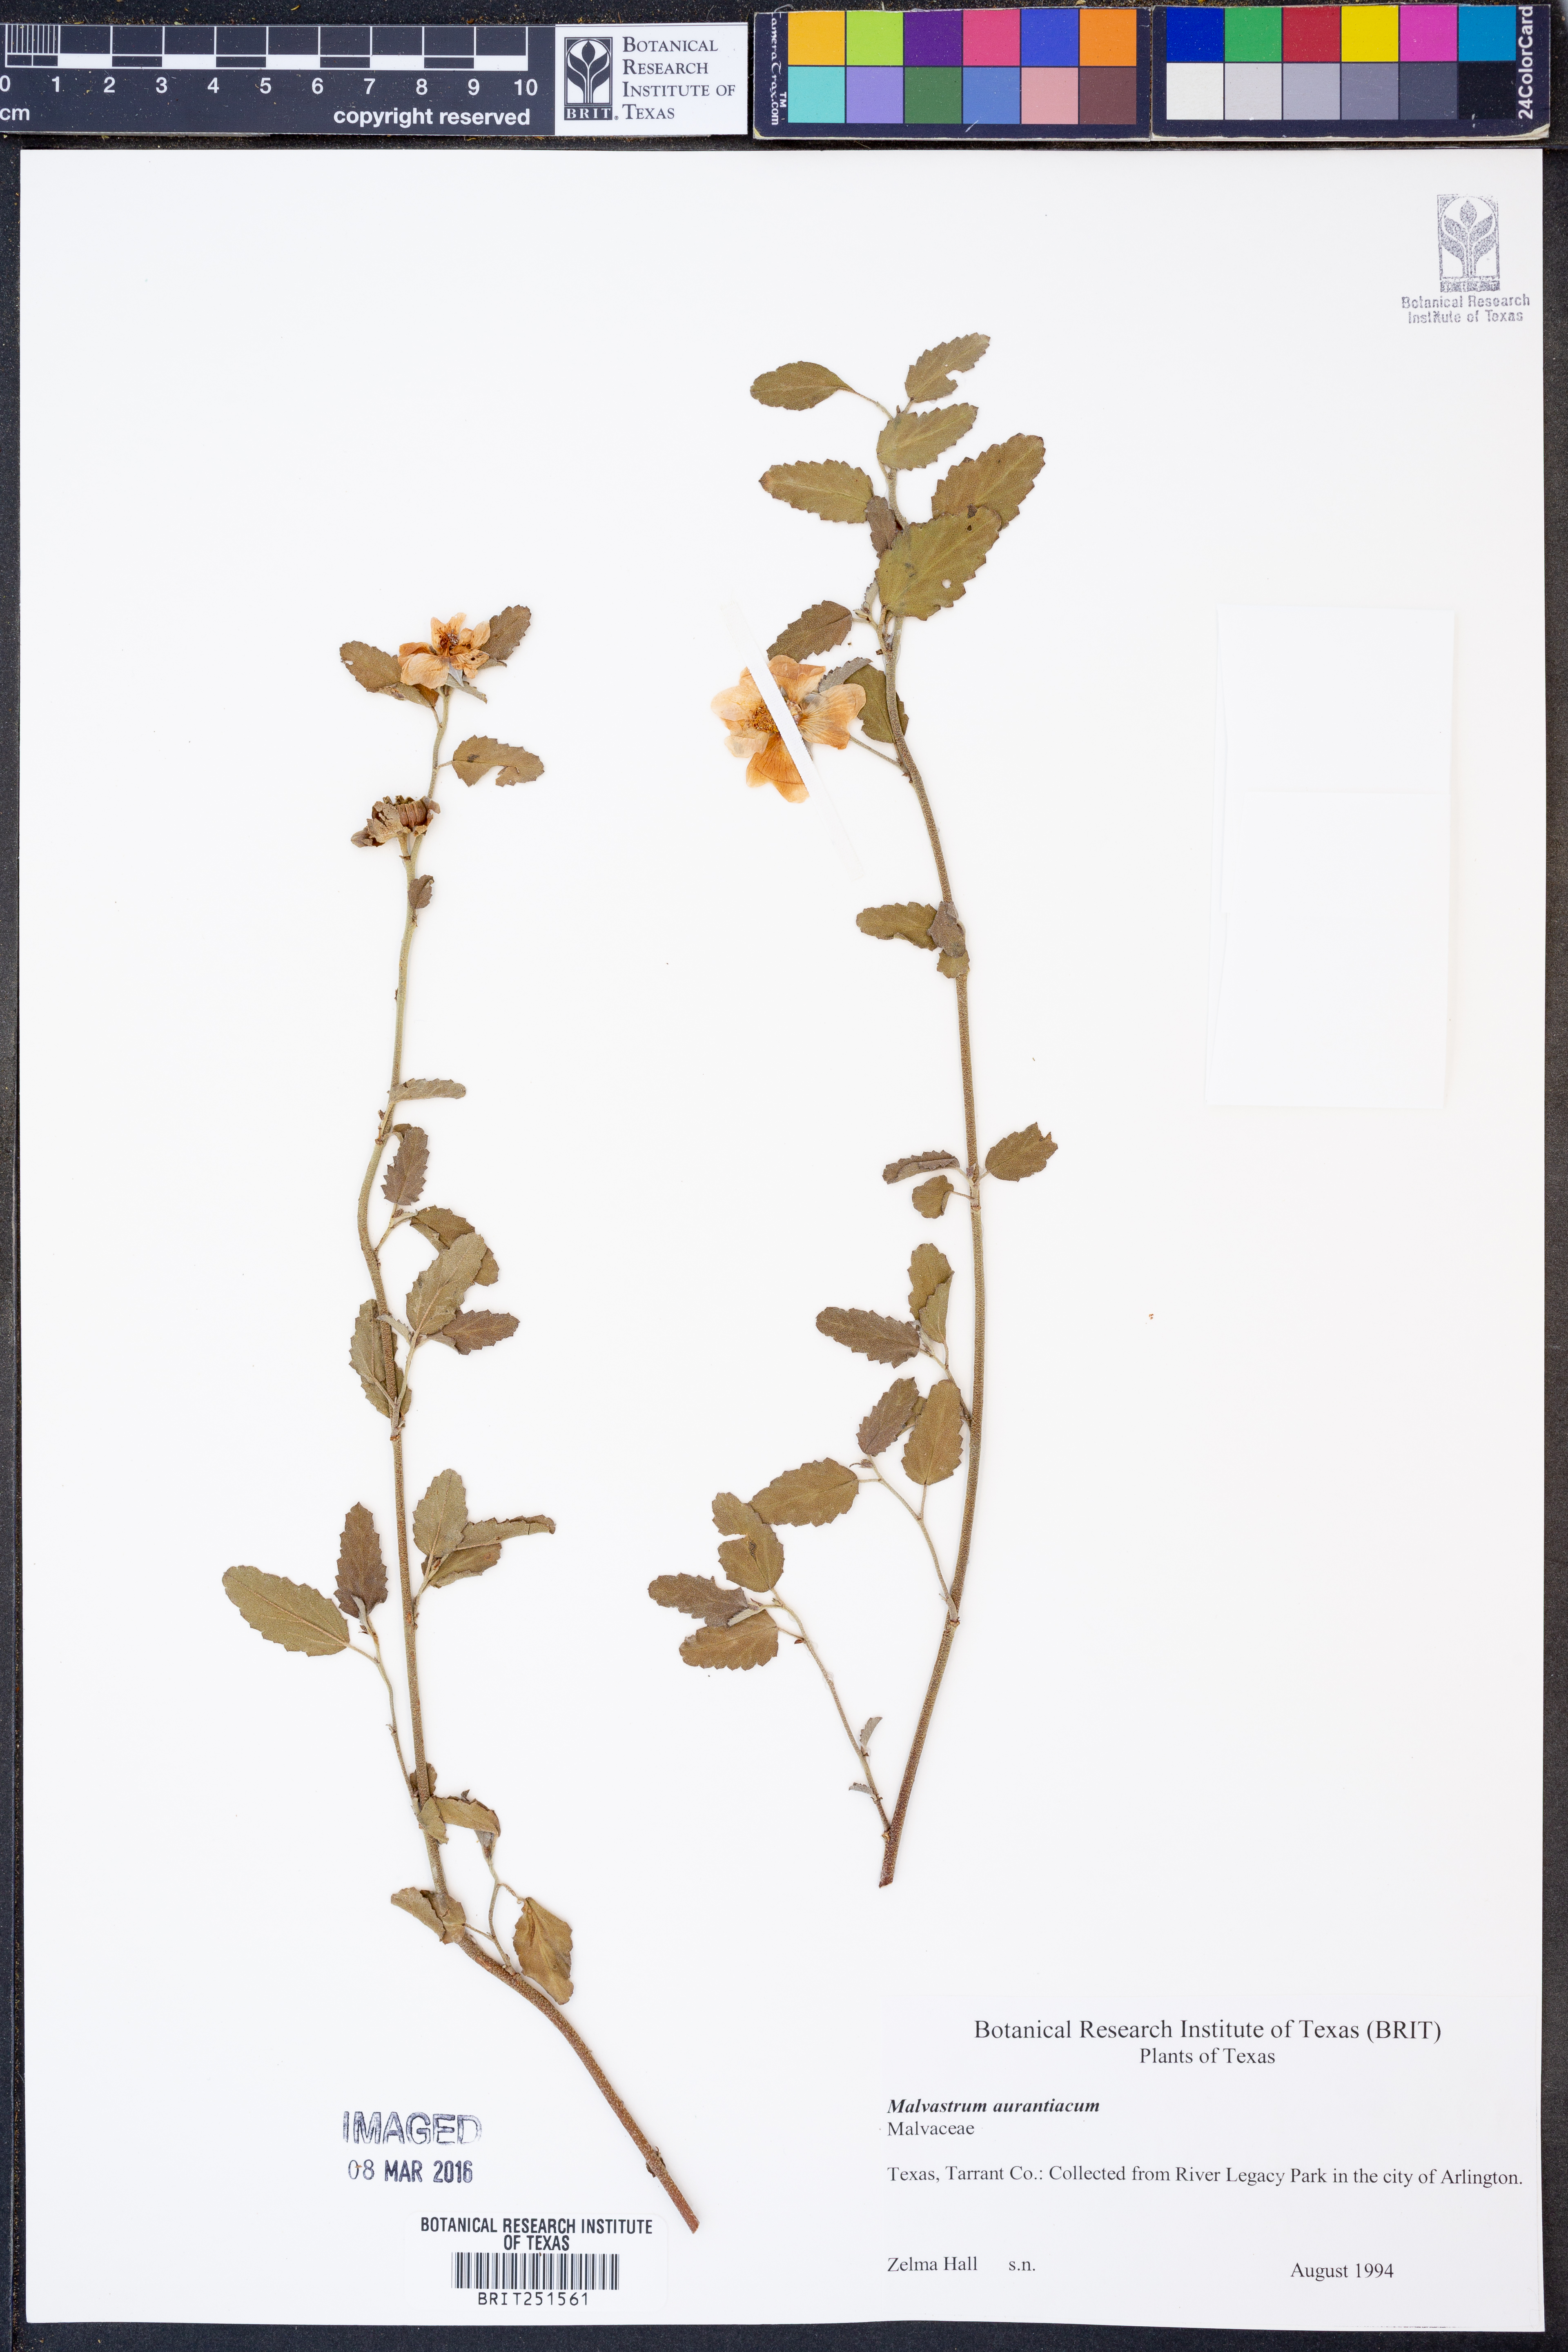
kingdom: Plantae
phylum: Tracheophyta
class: Magnoliopsida
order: Malvales
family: Malvaceae
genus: Malvastrum
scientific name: Malvastrum aurantiacum
